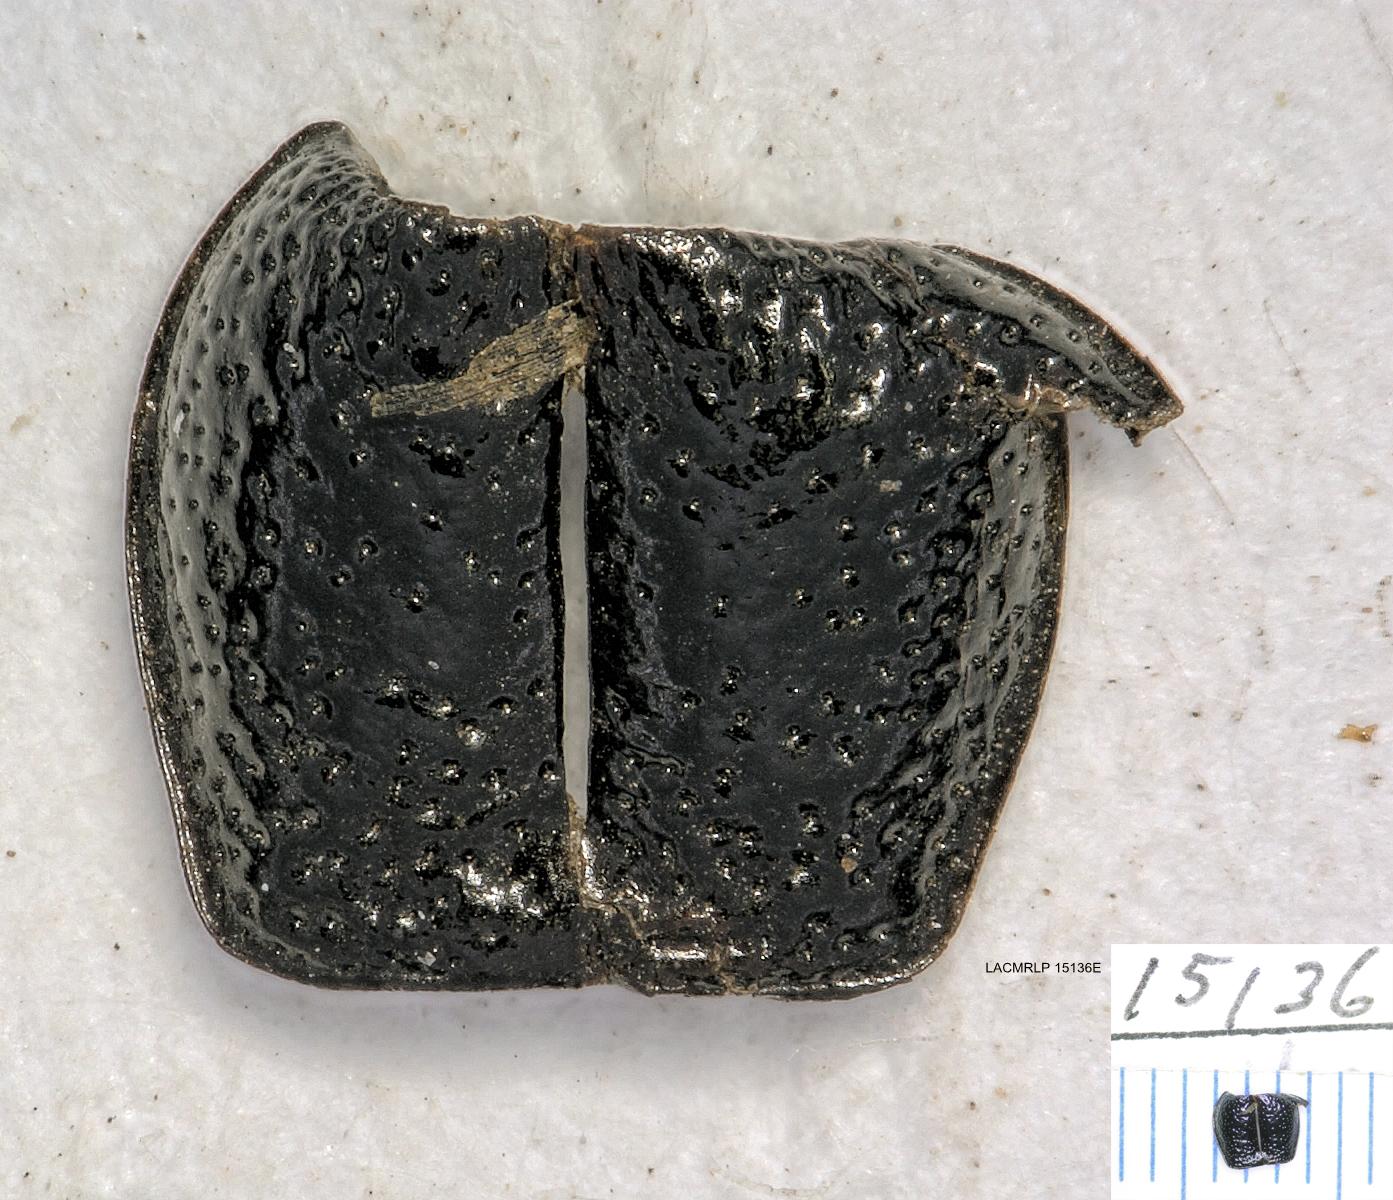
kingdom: Animalia
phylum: Arthropoda
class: Insecta
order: Coleoptera
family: Carabidae
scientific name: Carabidae
